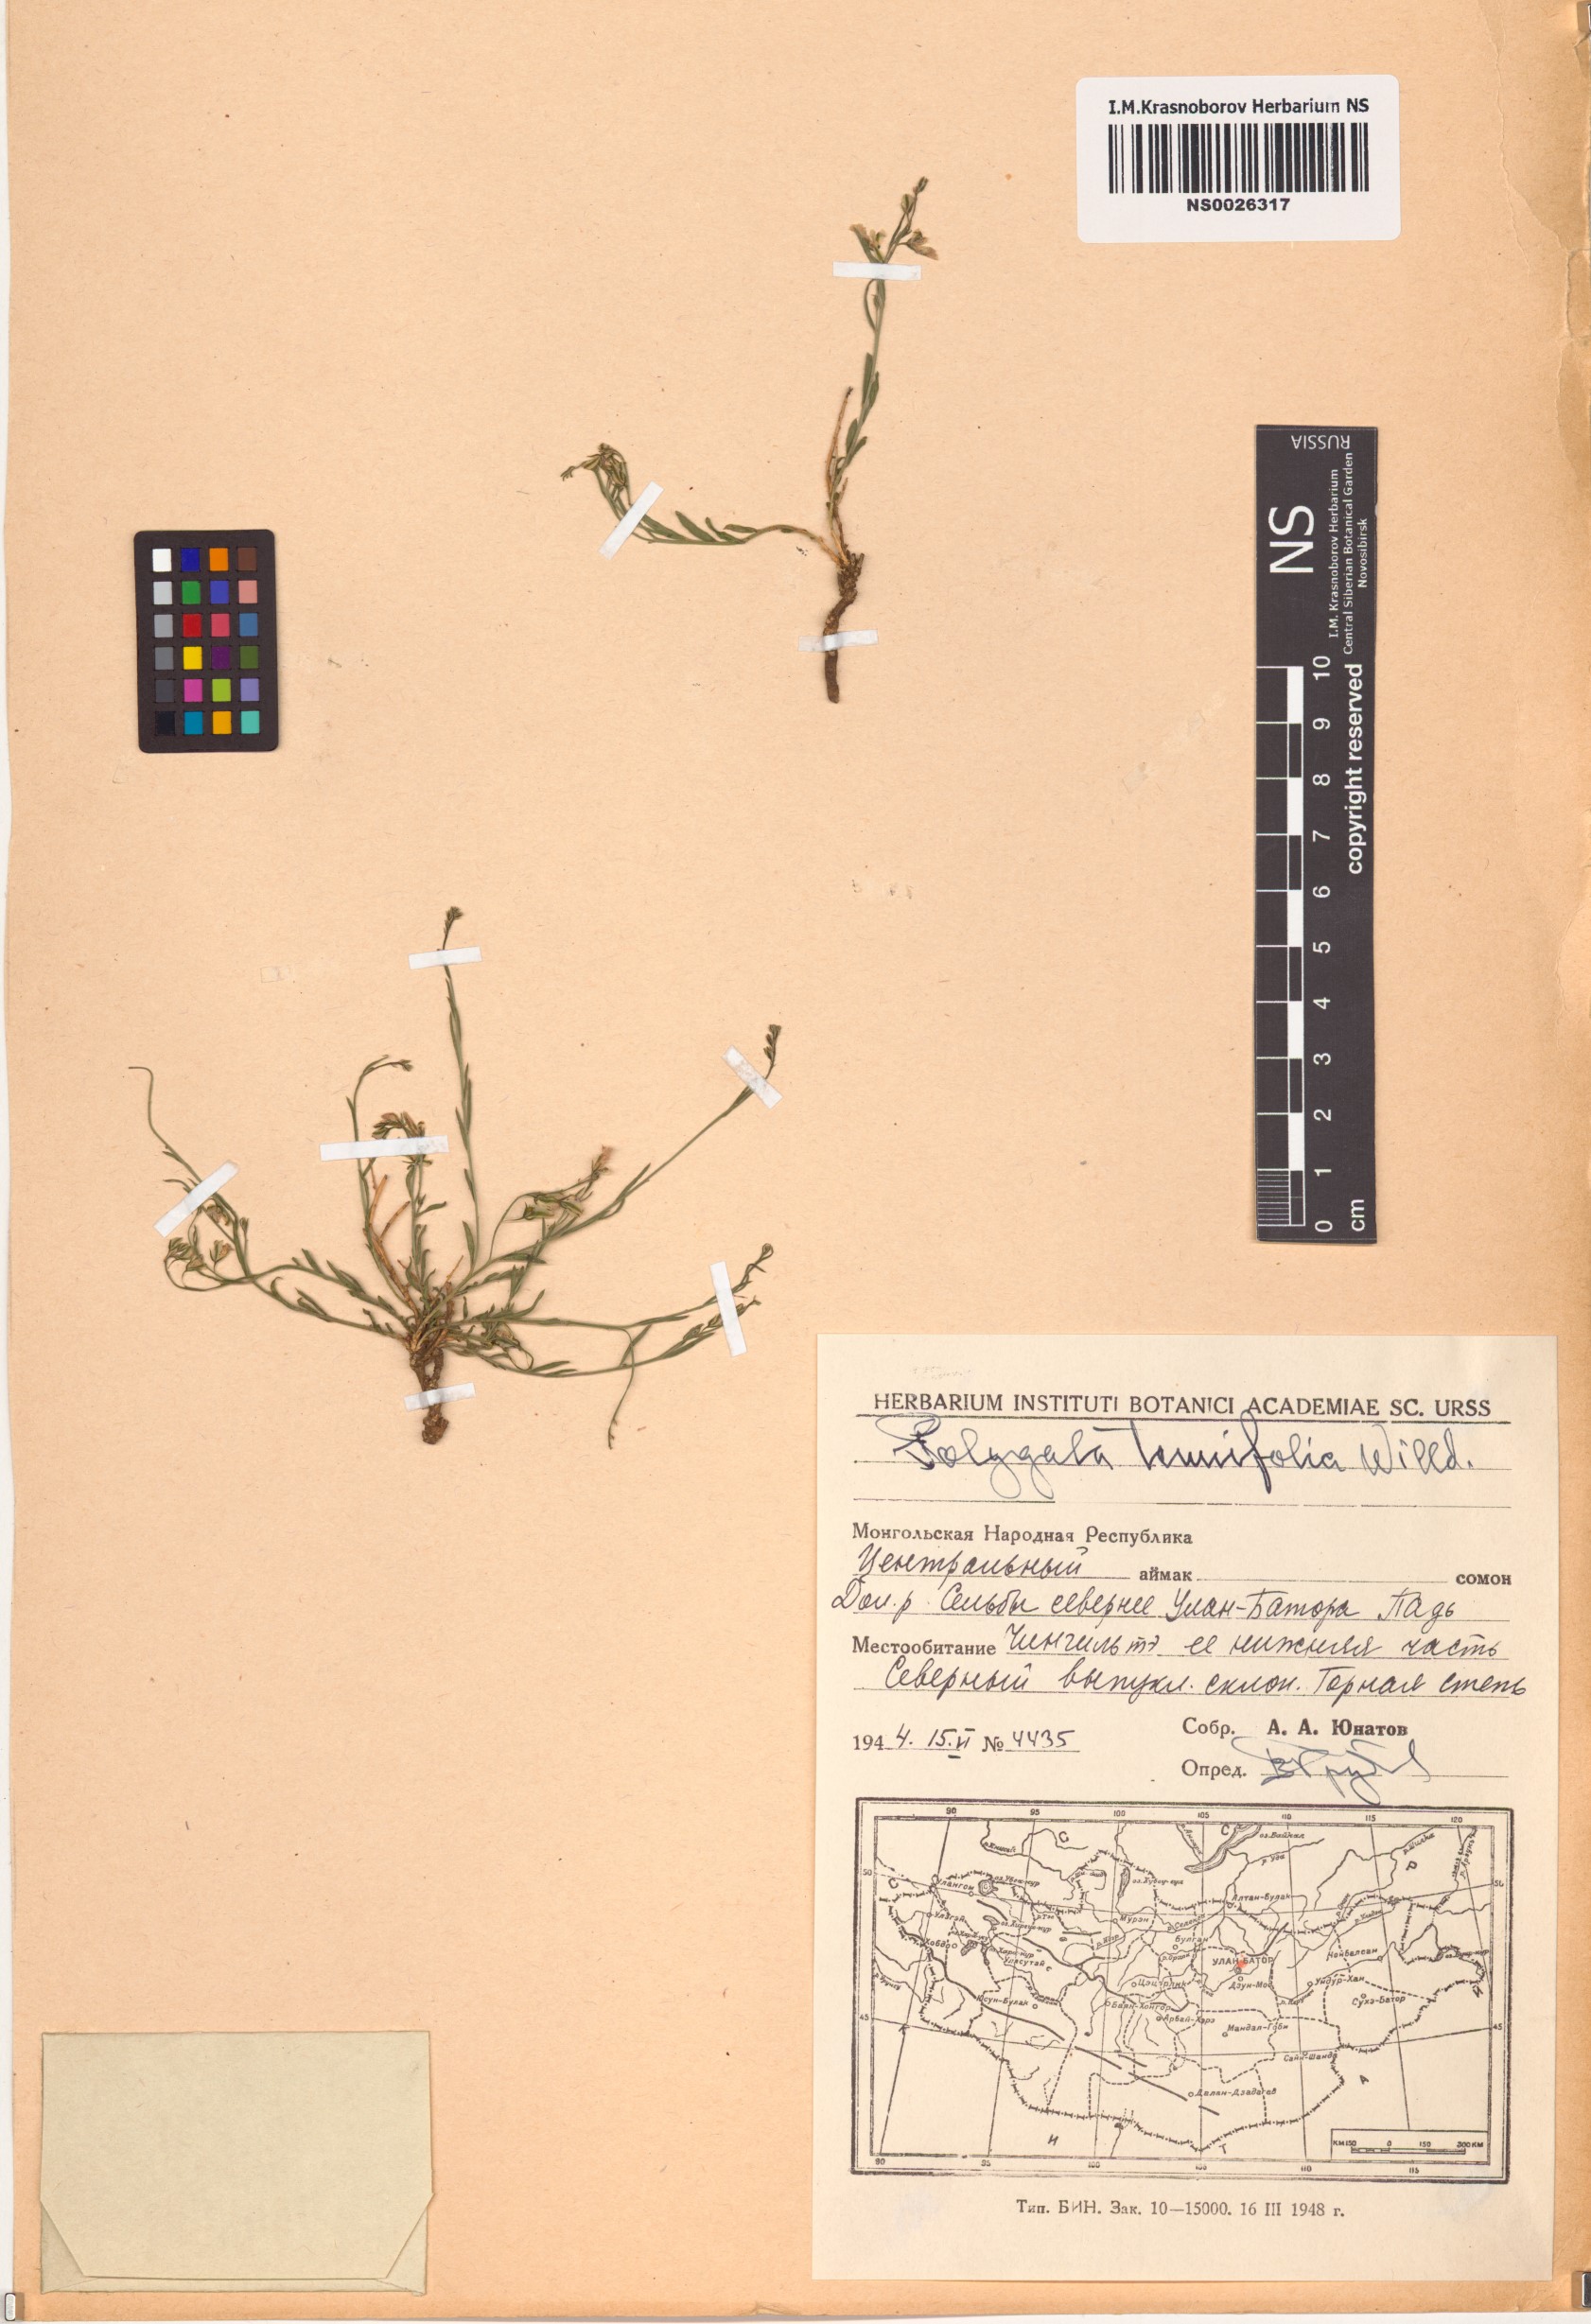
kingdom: Plantae
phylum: Tracheophyta
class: Magnoliopsida
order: Fabales
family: Polygalaceae
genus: Polygala
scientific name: Polygala tenuifolia
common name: Chinese senega-root
